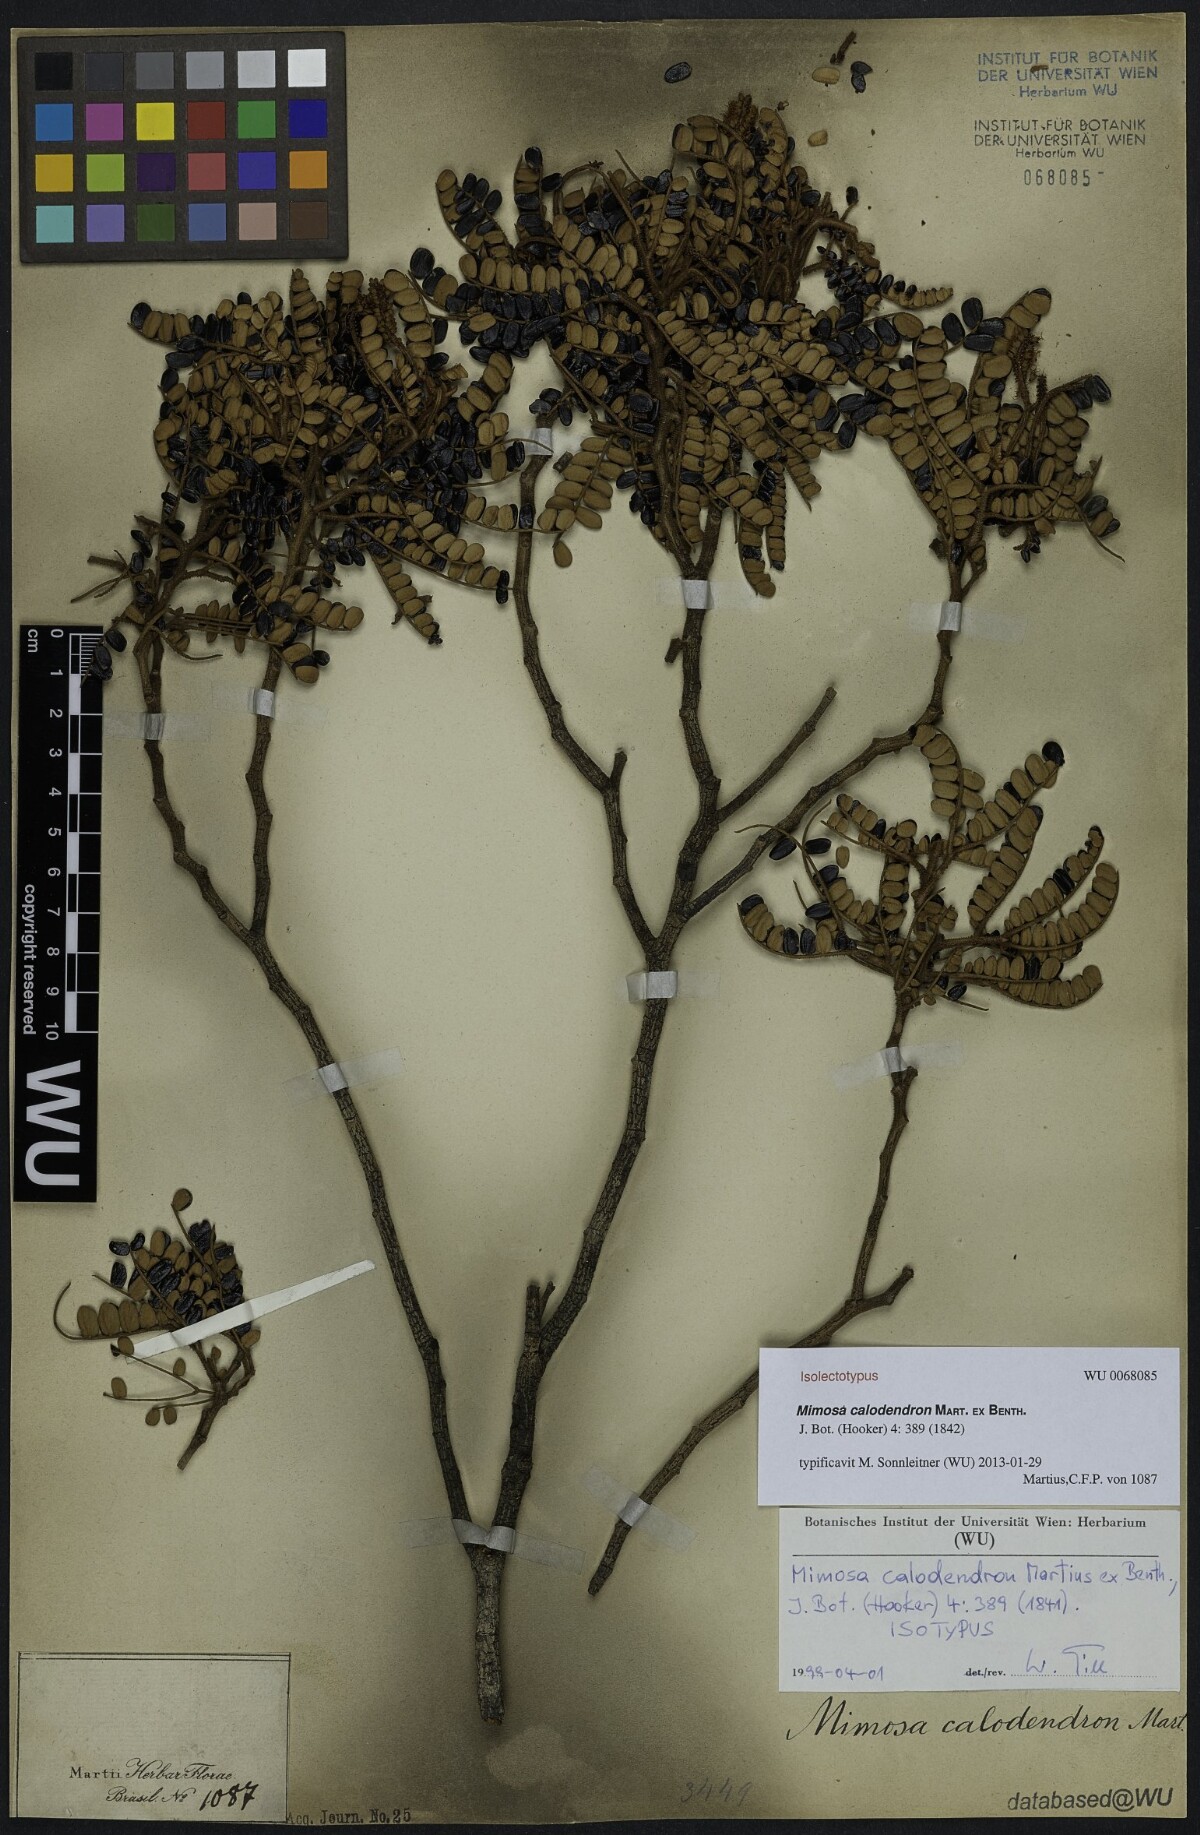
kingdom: Plantae
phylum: Tracheophyta
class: Magnoliopsida
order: Fabales
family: Fabaceae
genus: Mimosa
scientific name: Mimosa calodendron
